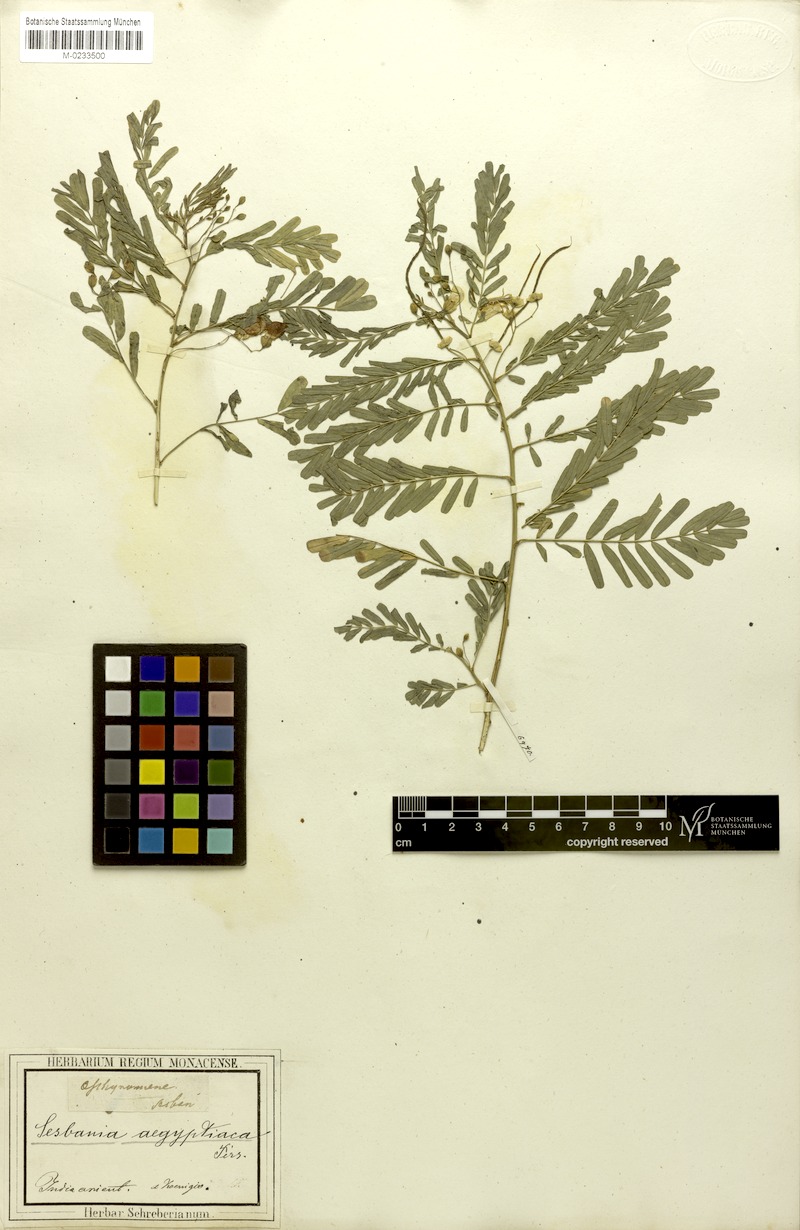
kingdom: Plantae
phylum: Tracheophyta
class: Magnoliopsida
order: Fabales
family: Fabaceae
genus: Sesbania
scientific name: Sesbania sesban
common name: Egyptian sesban
